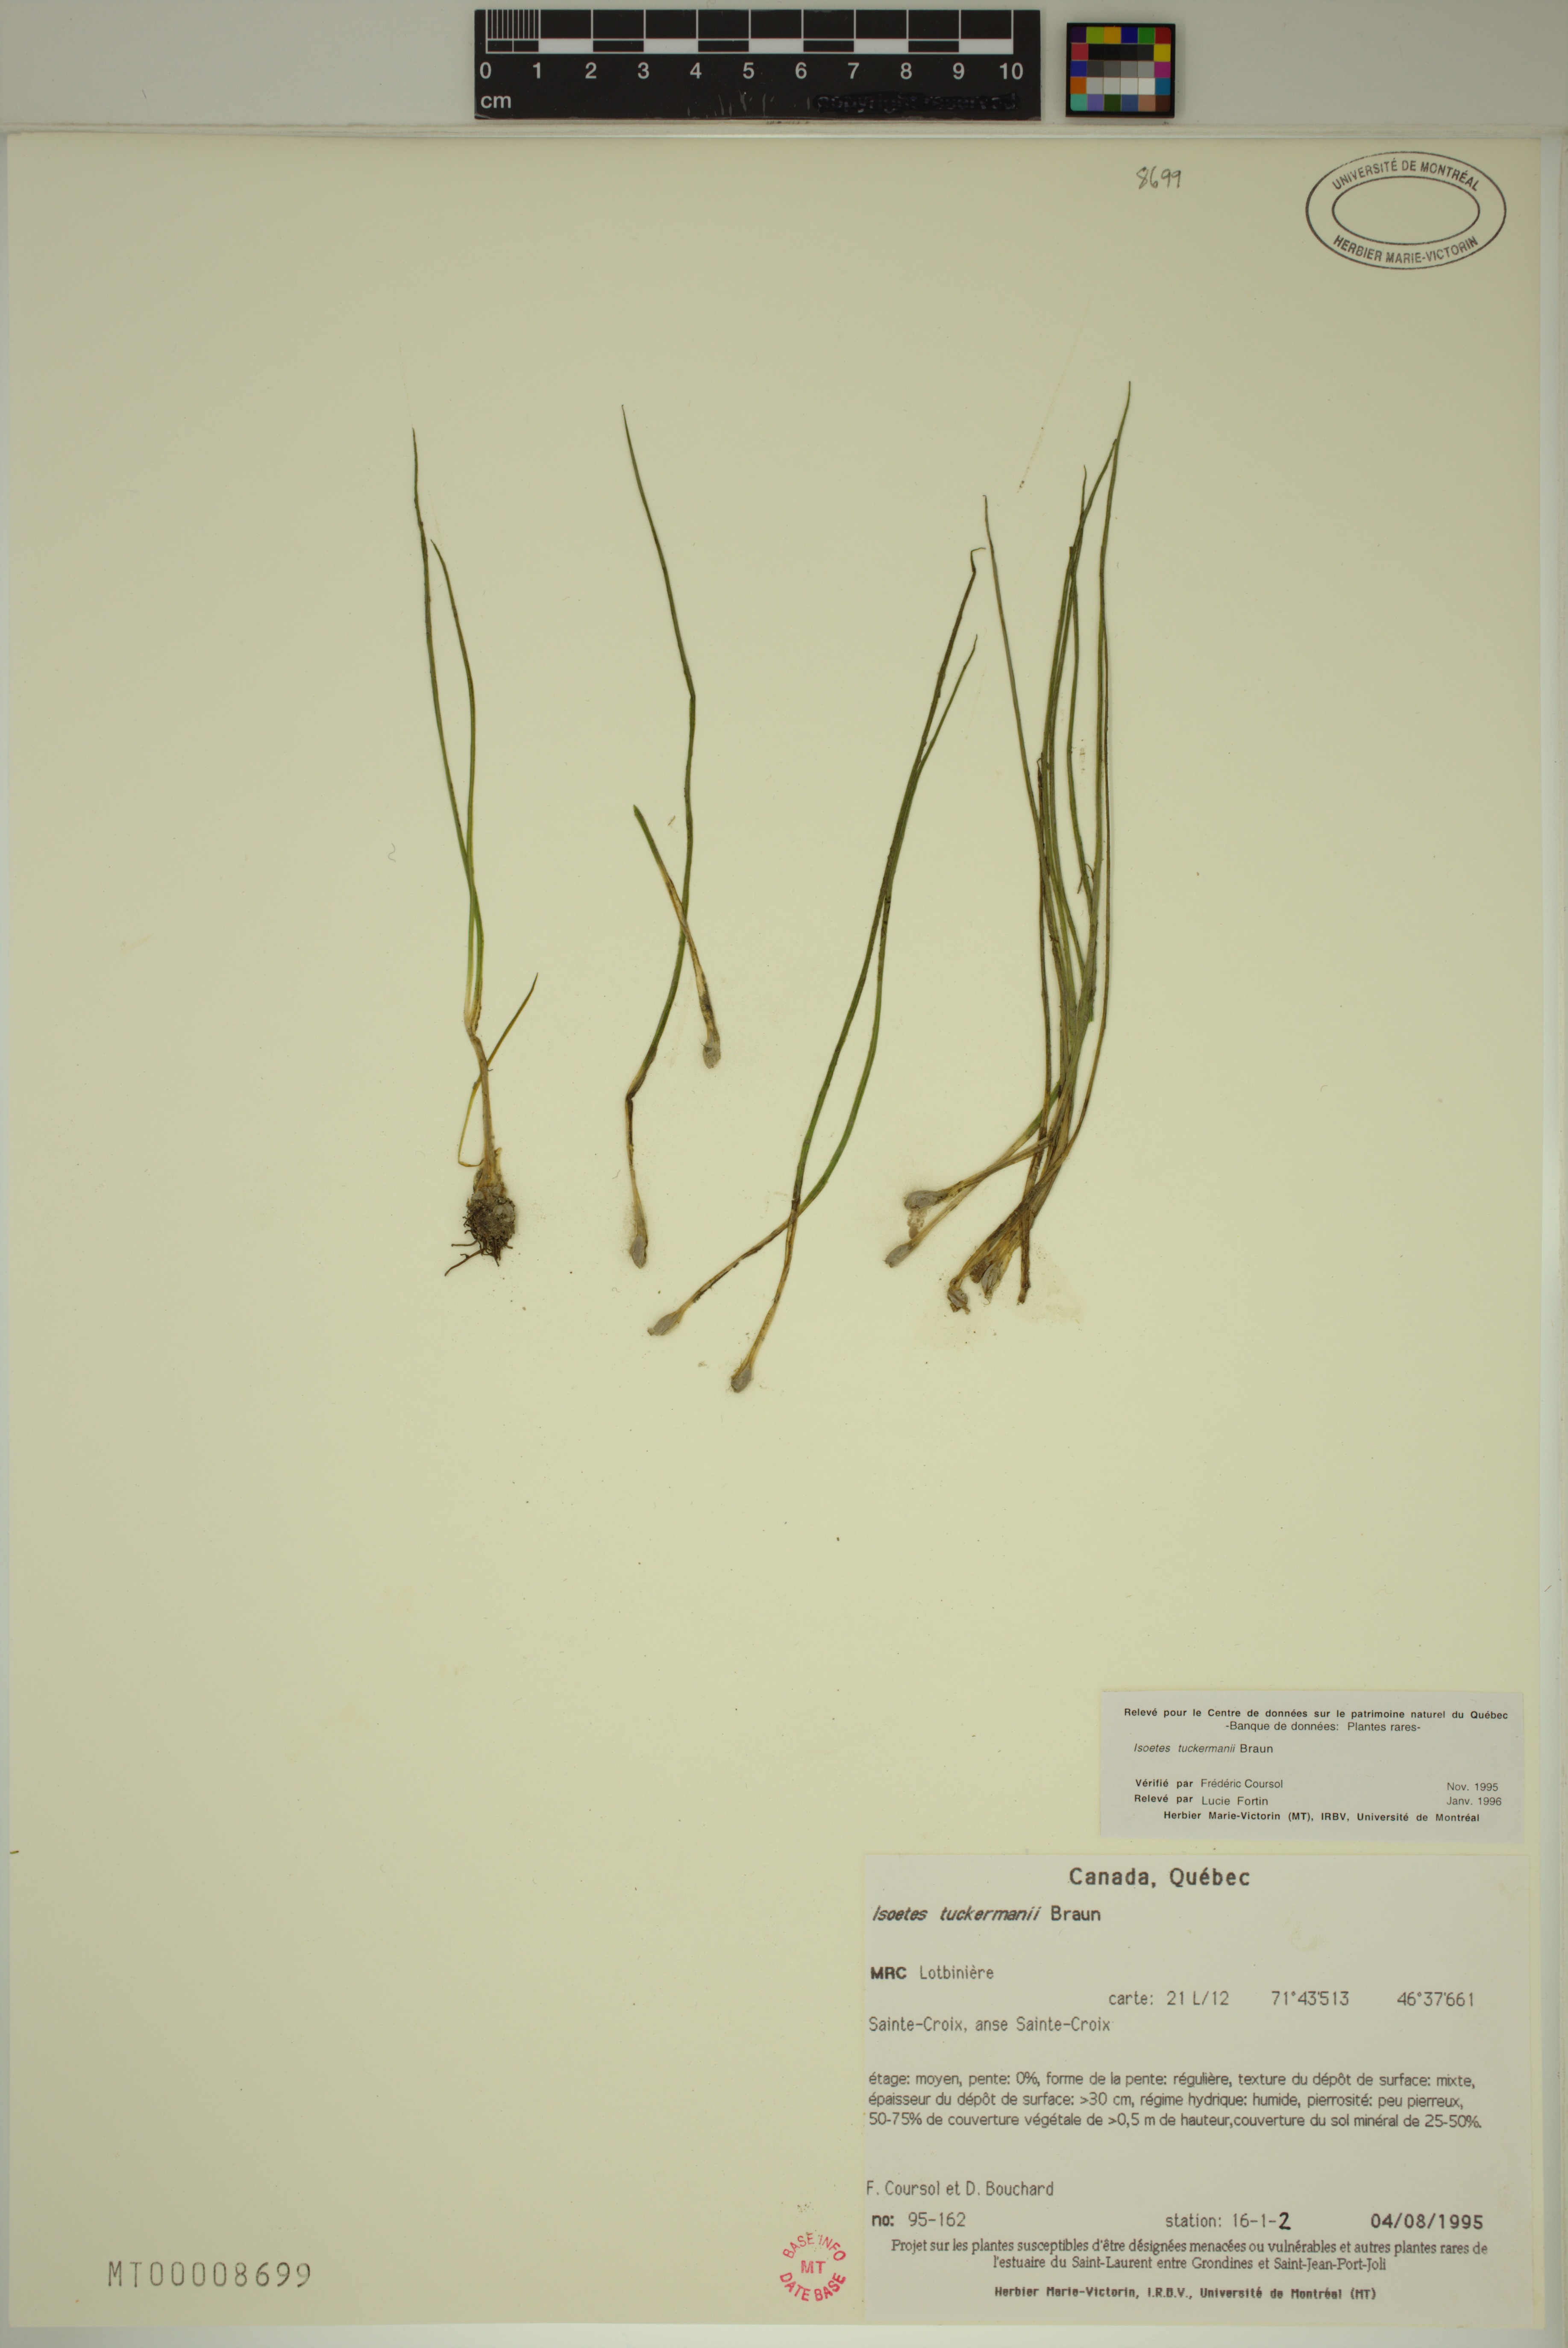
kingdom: Plantae
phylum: Tracheophyta
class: Lycopodiopsida
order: Isoetales
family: Isoetaceae
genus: Isoetes
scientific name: Isoetes laurentiana
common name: St. lawrence quillwort
